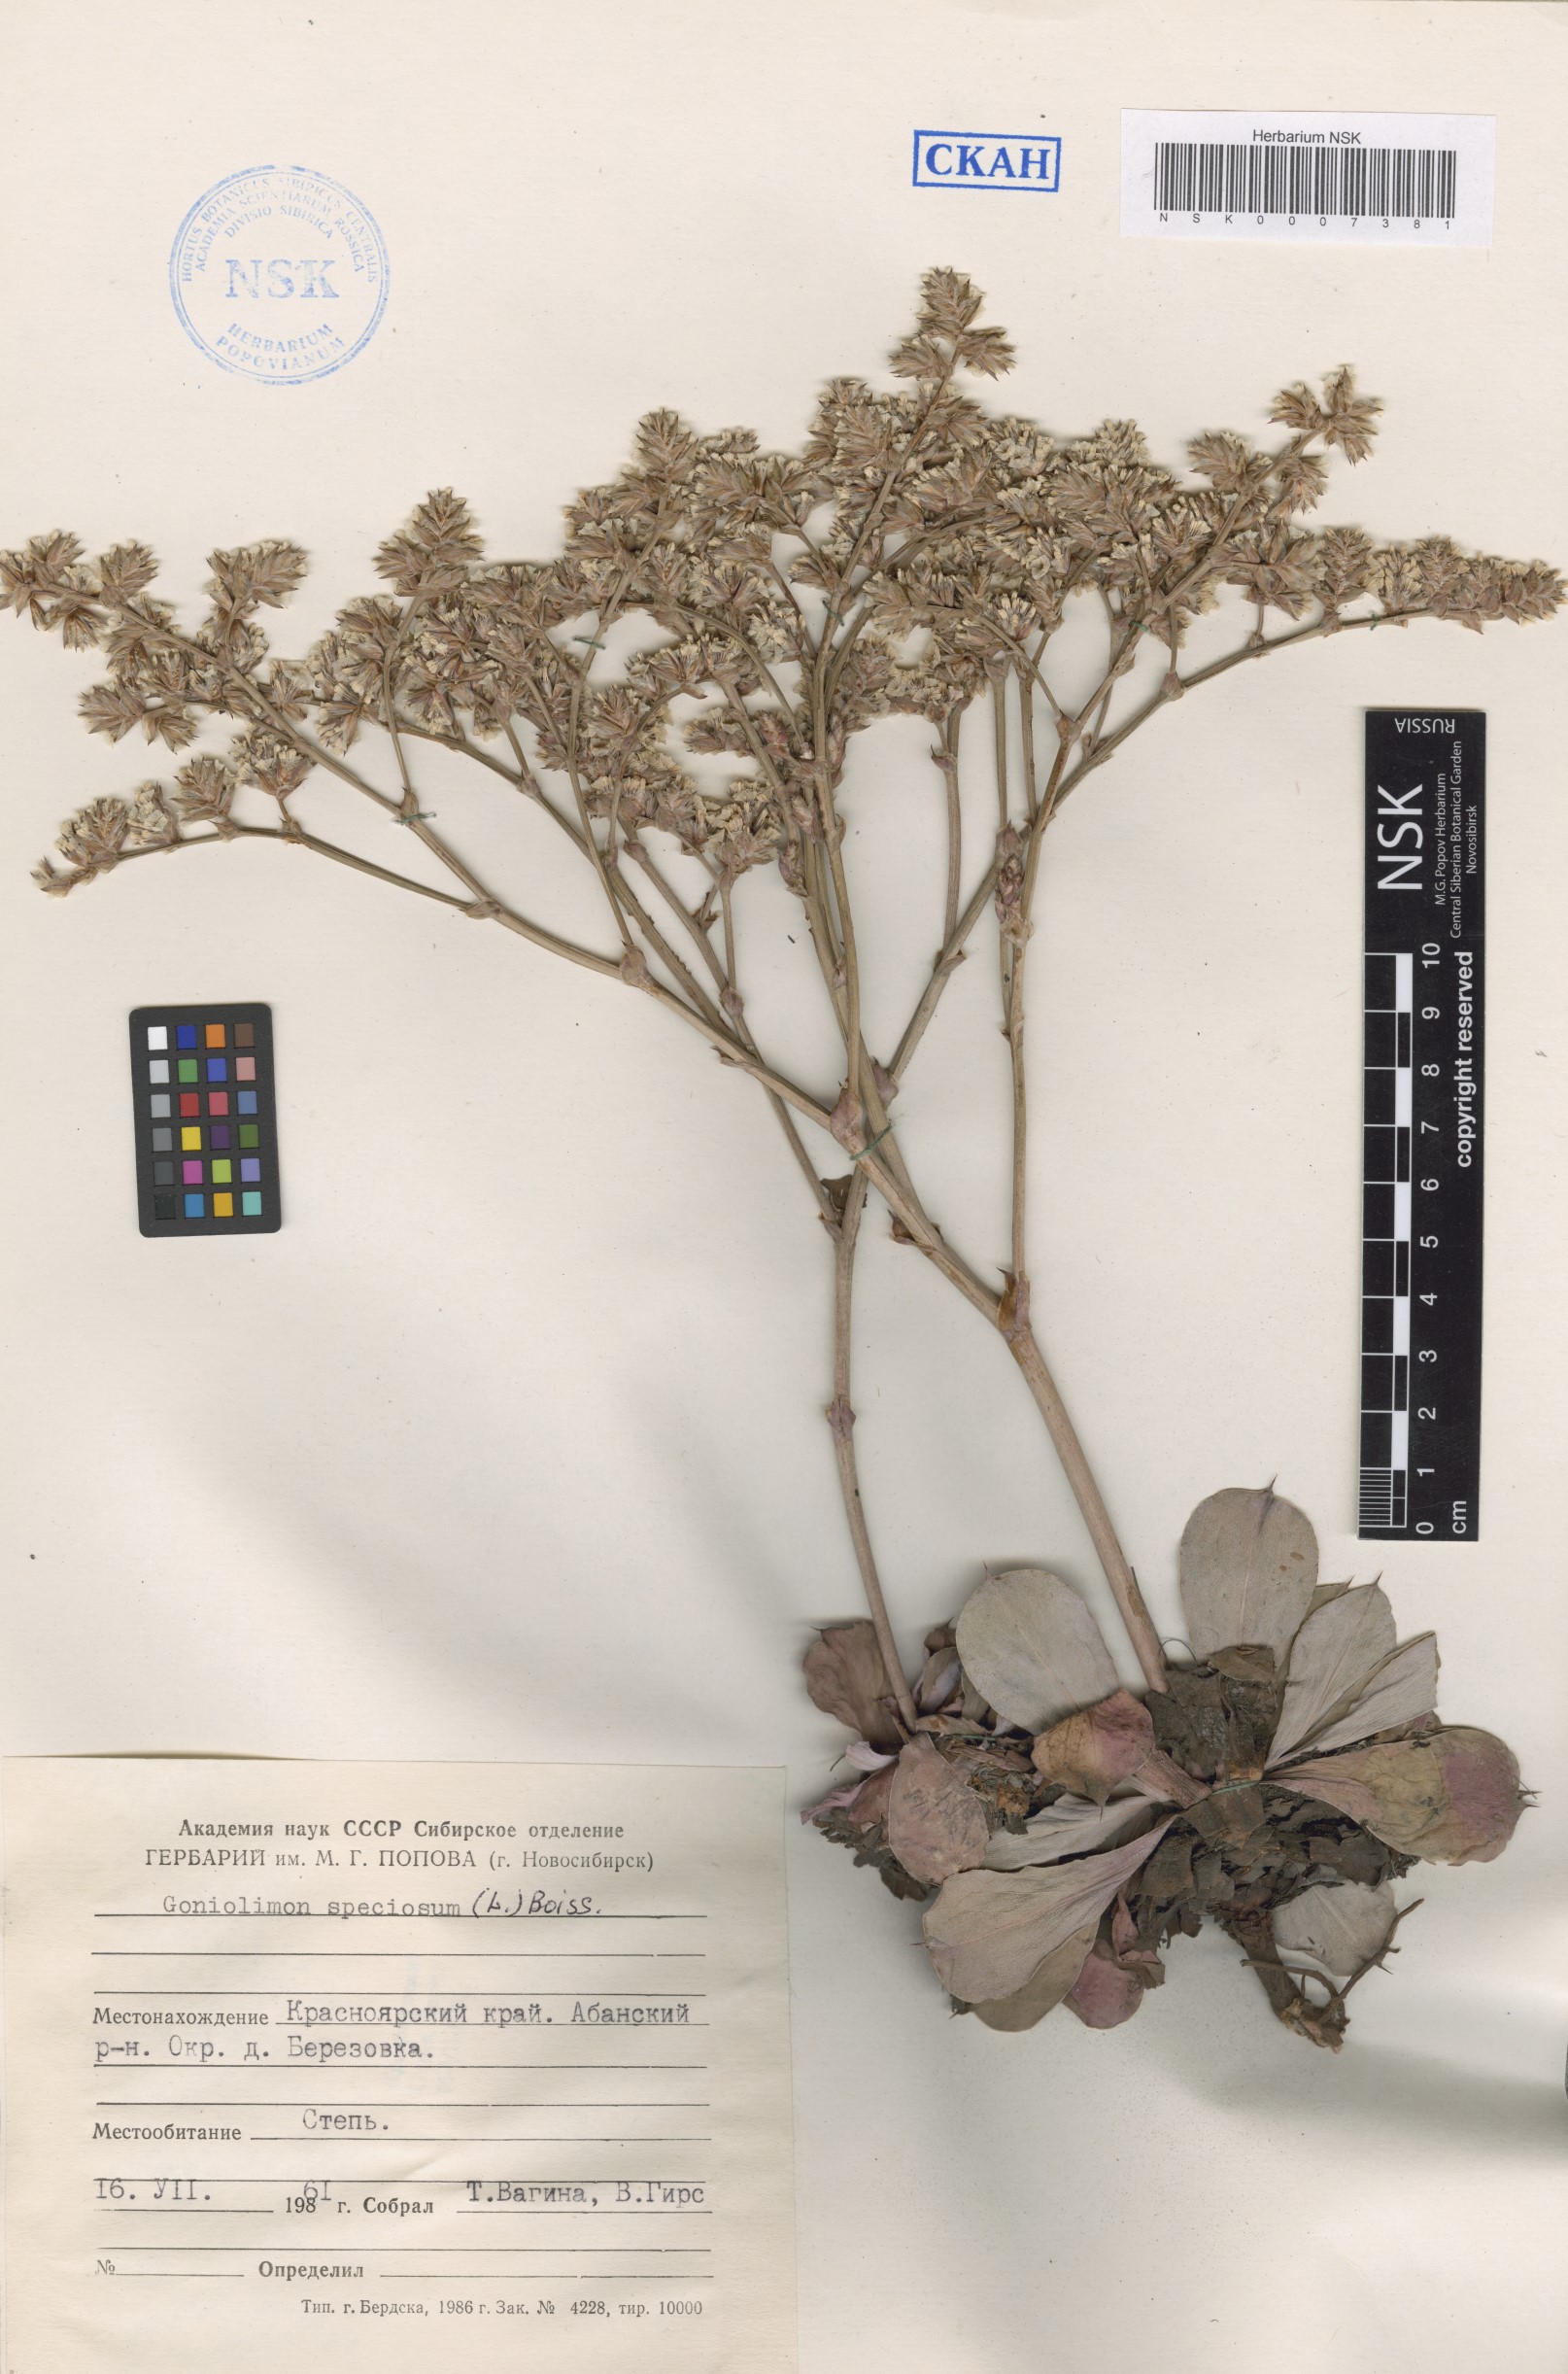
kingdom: Plantae
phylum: Tracheophyta
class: Magnoliopsida
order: Caryophyllales
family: Plumbaginaceae
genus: Goniolimon
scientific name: Goniolimon speciosum
